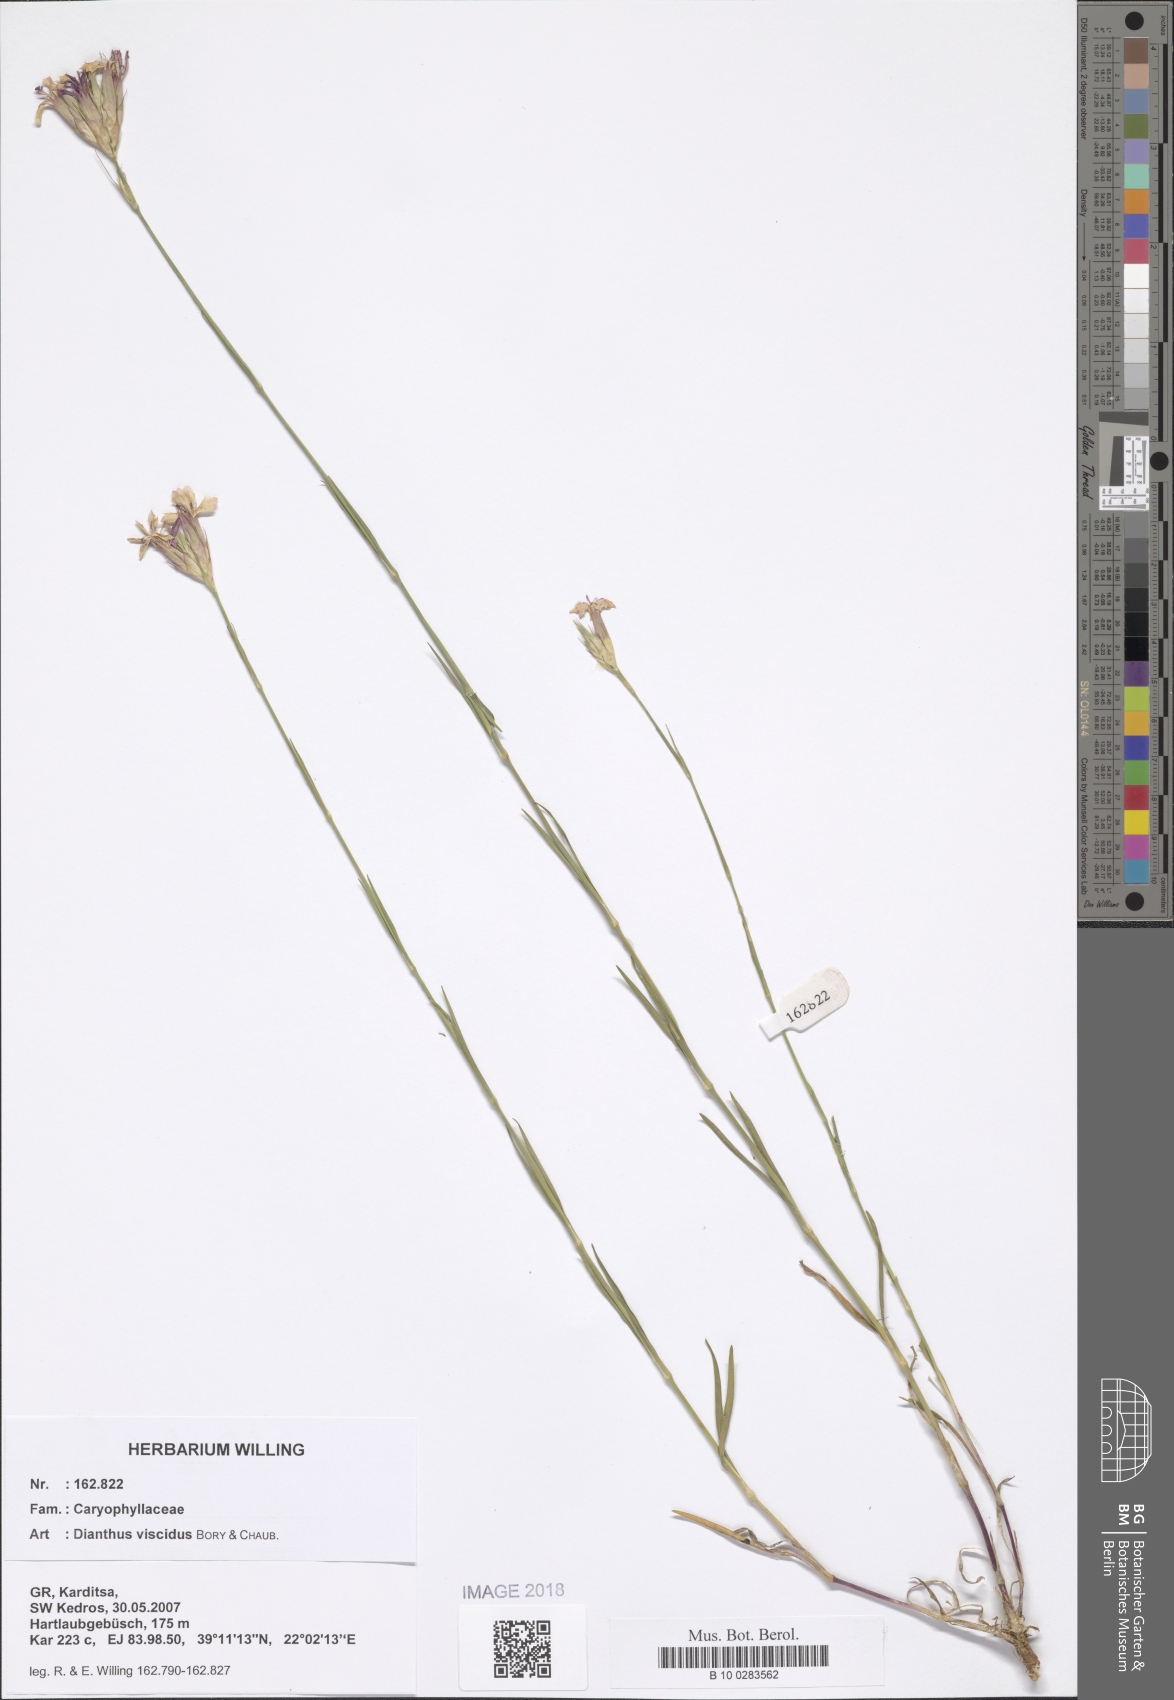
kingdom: Plantae
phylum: Tracheophyta
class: Magnoliopsida
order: Caryophyllales
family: Caryophyllaceae
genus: Dianthus
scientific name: Dianthus viscidus
